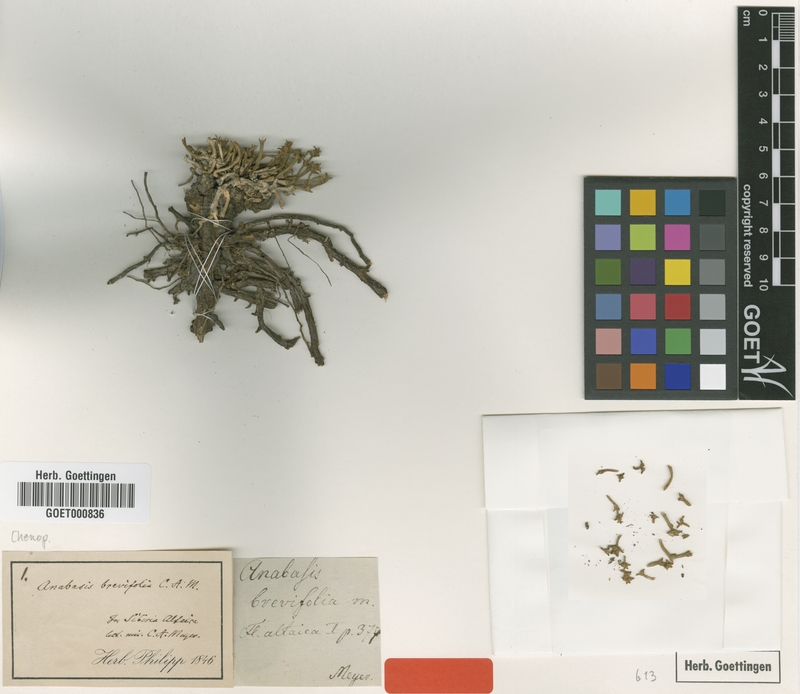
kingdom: Plantae
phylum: Tracheophyta
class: Magnoliopsida
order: Caryophyllales
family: Amaranthaceae
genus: Anabasis
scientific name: Anabasis brevifolia
